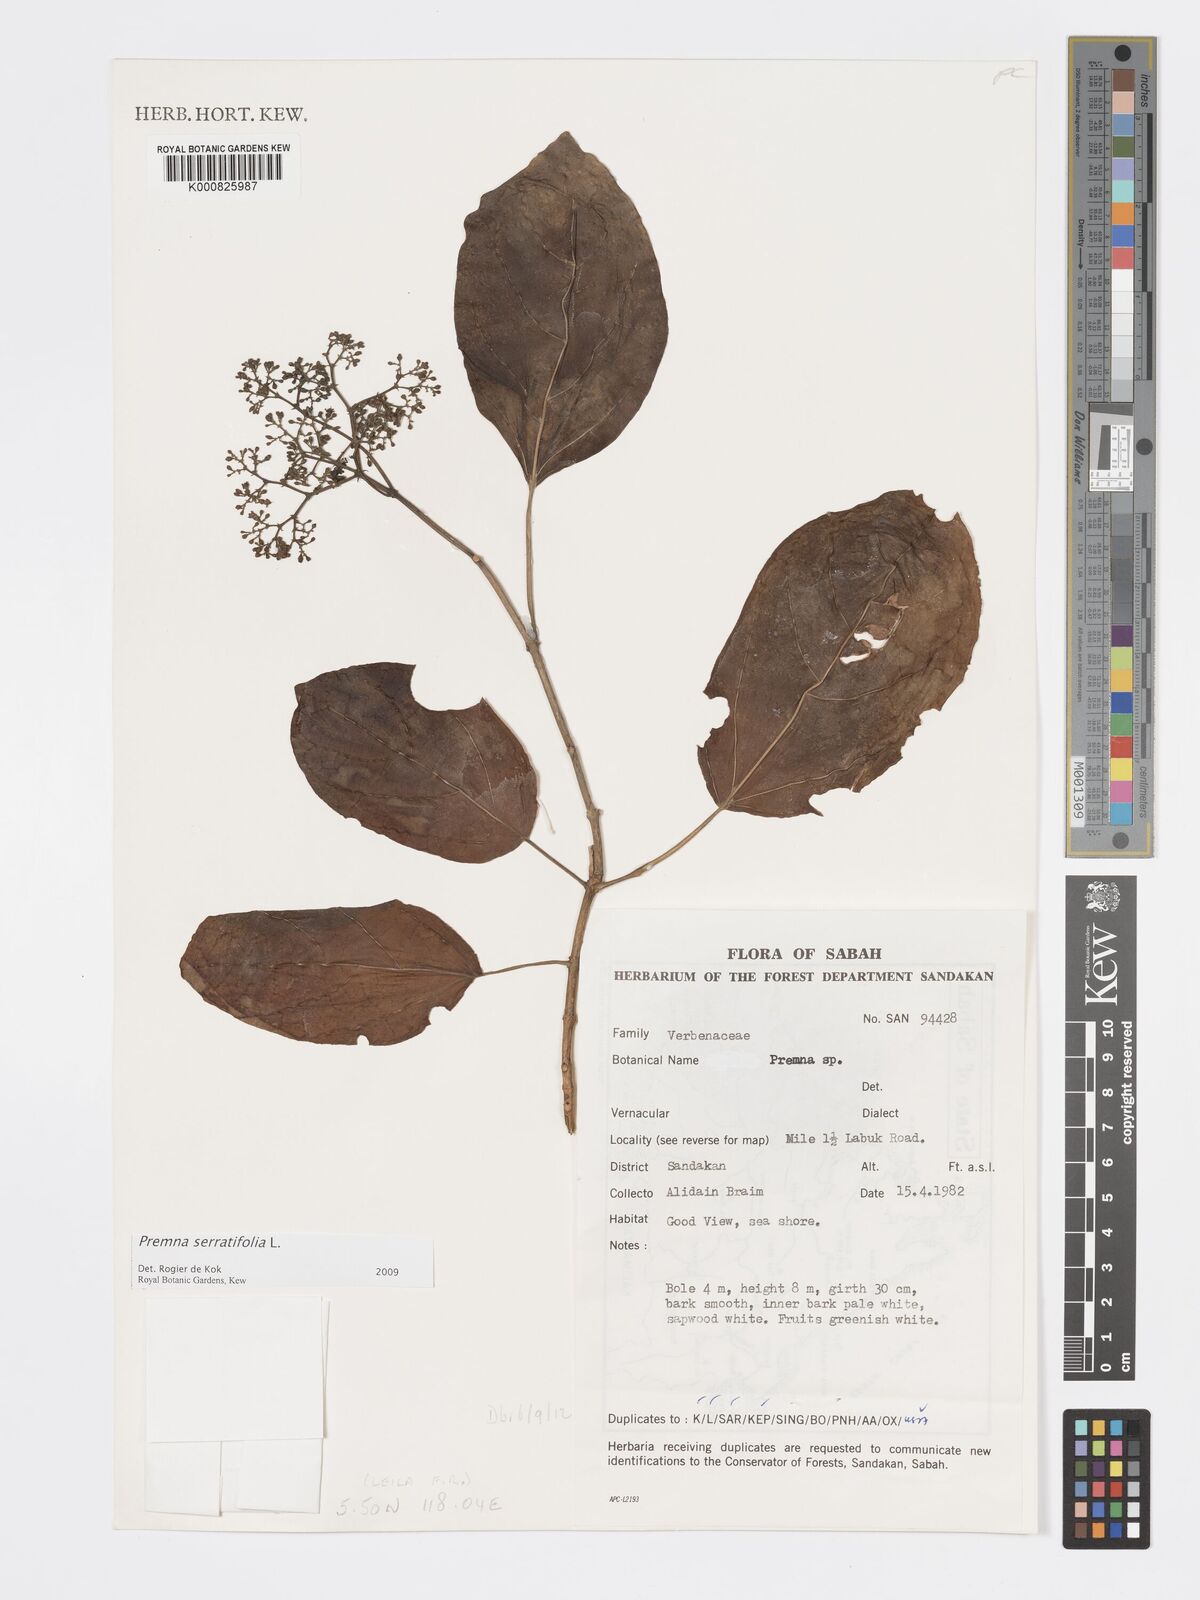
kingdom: Plantae
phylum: Tracheophyta
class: Magnoliopsida
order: Lamiales
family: Lamiaceae
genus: Premna
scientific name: Premna serratifolia
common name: Bastard guelder
